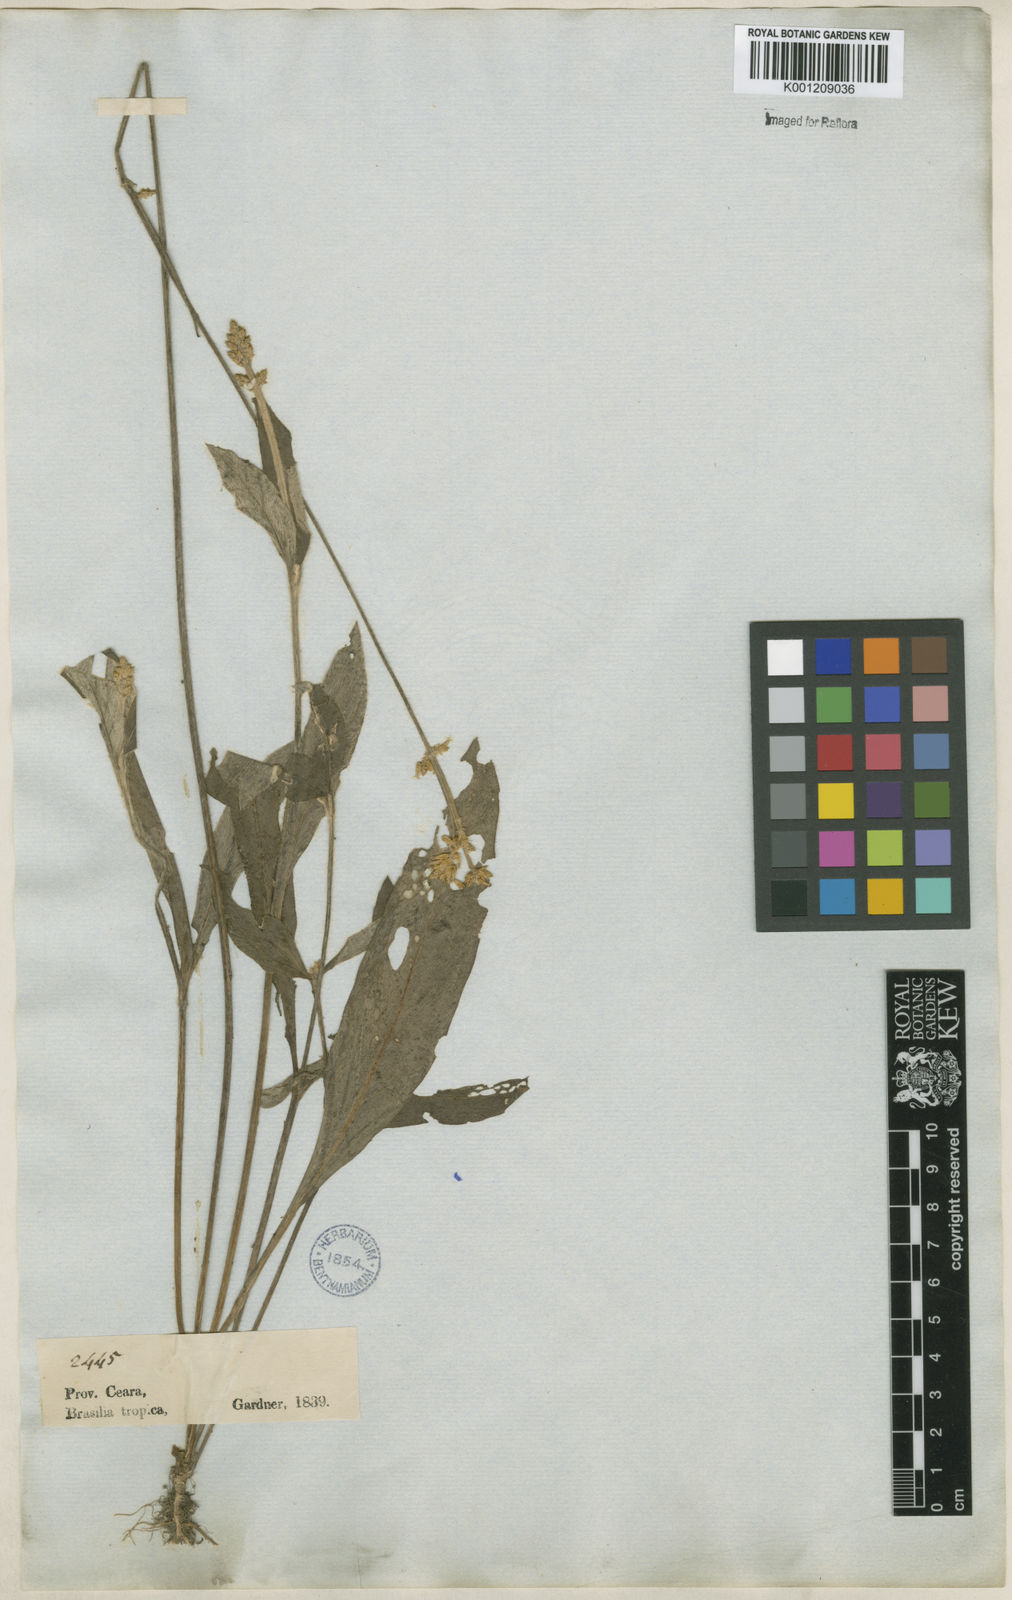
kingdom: Plantae
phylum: Tracheophyta
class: Magnoliopsida
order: Caryophyllales
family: Amaranthaceae
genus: Froelichia
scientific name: Froelichia humboldtiana
